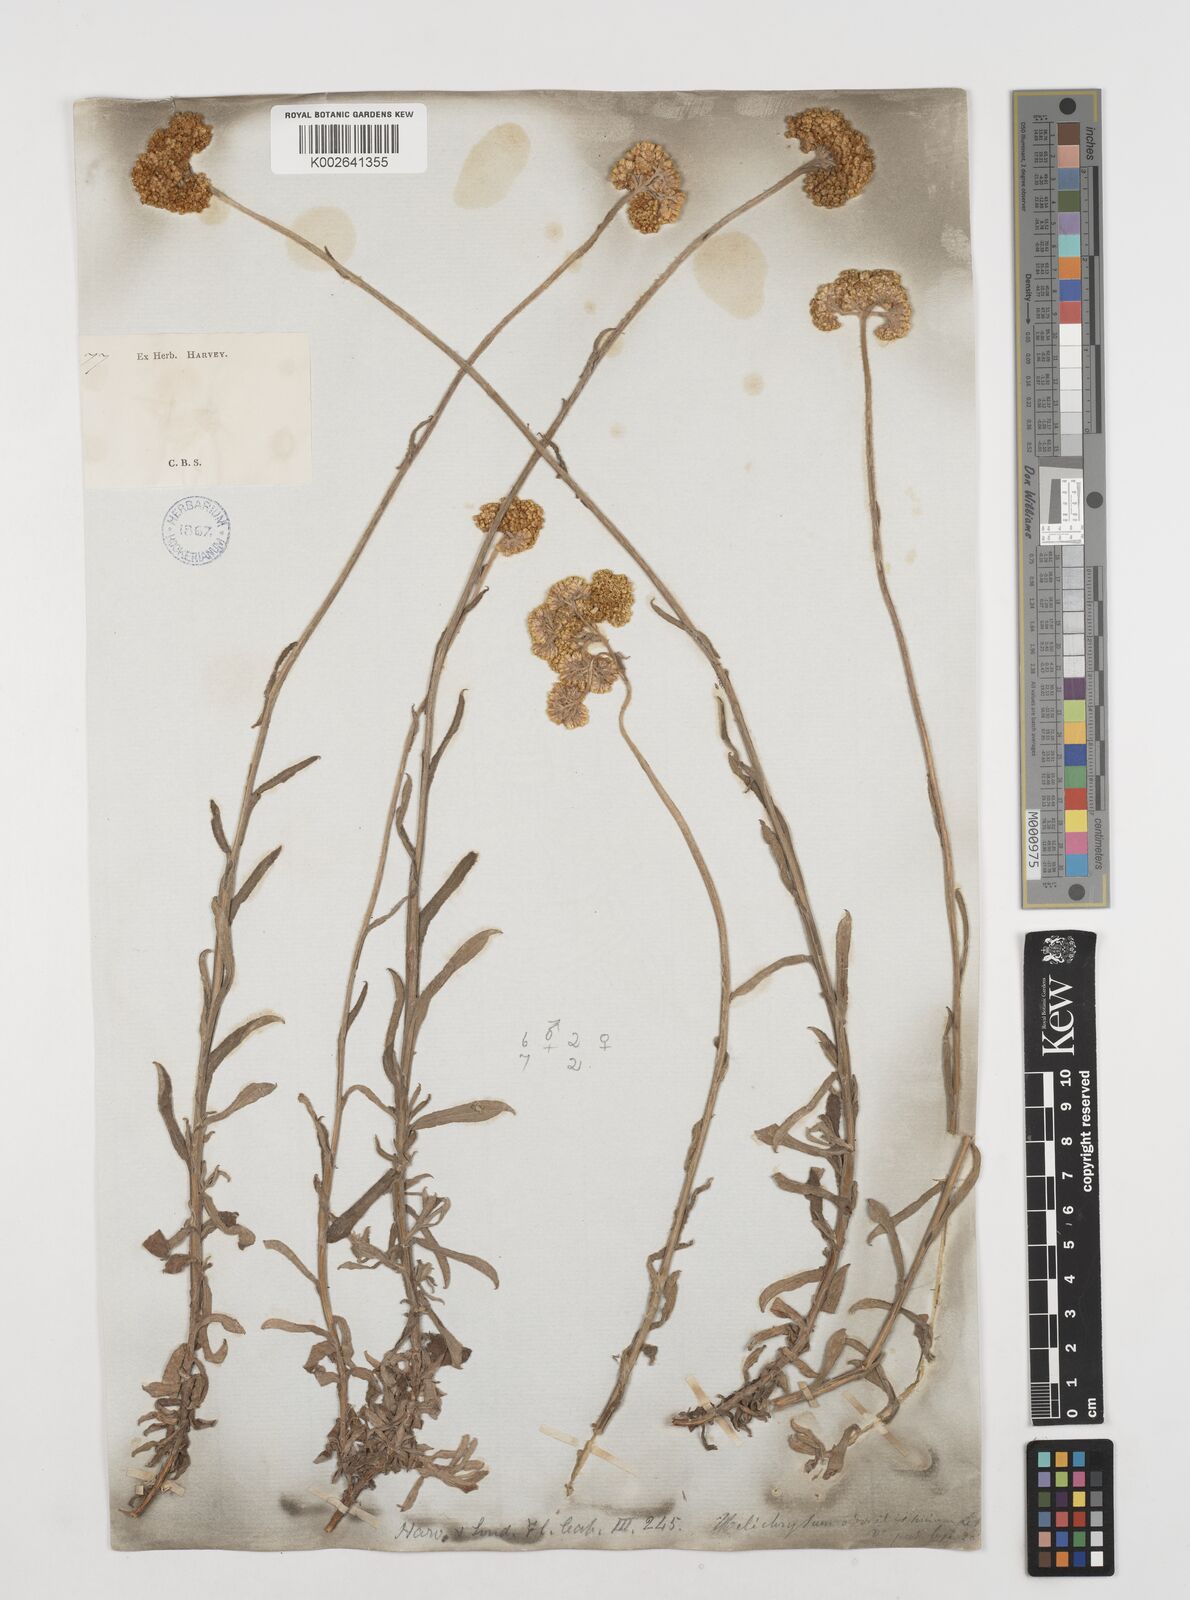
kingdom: Plantae
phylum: Tracheophyta
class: Magnoliopsida
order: Asterales
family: Asteraceae
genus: Helichrysum
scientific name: Helichrysum odoratissimum
